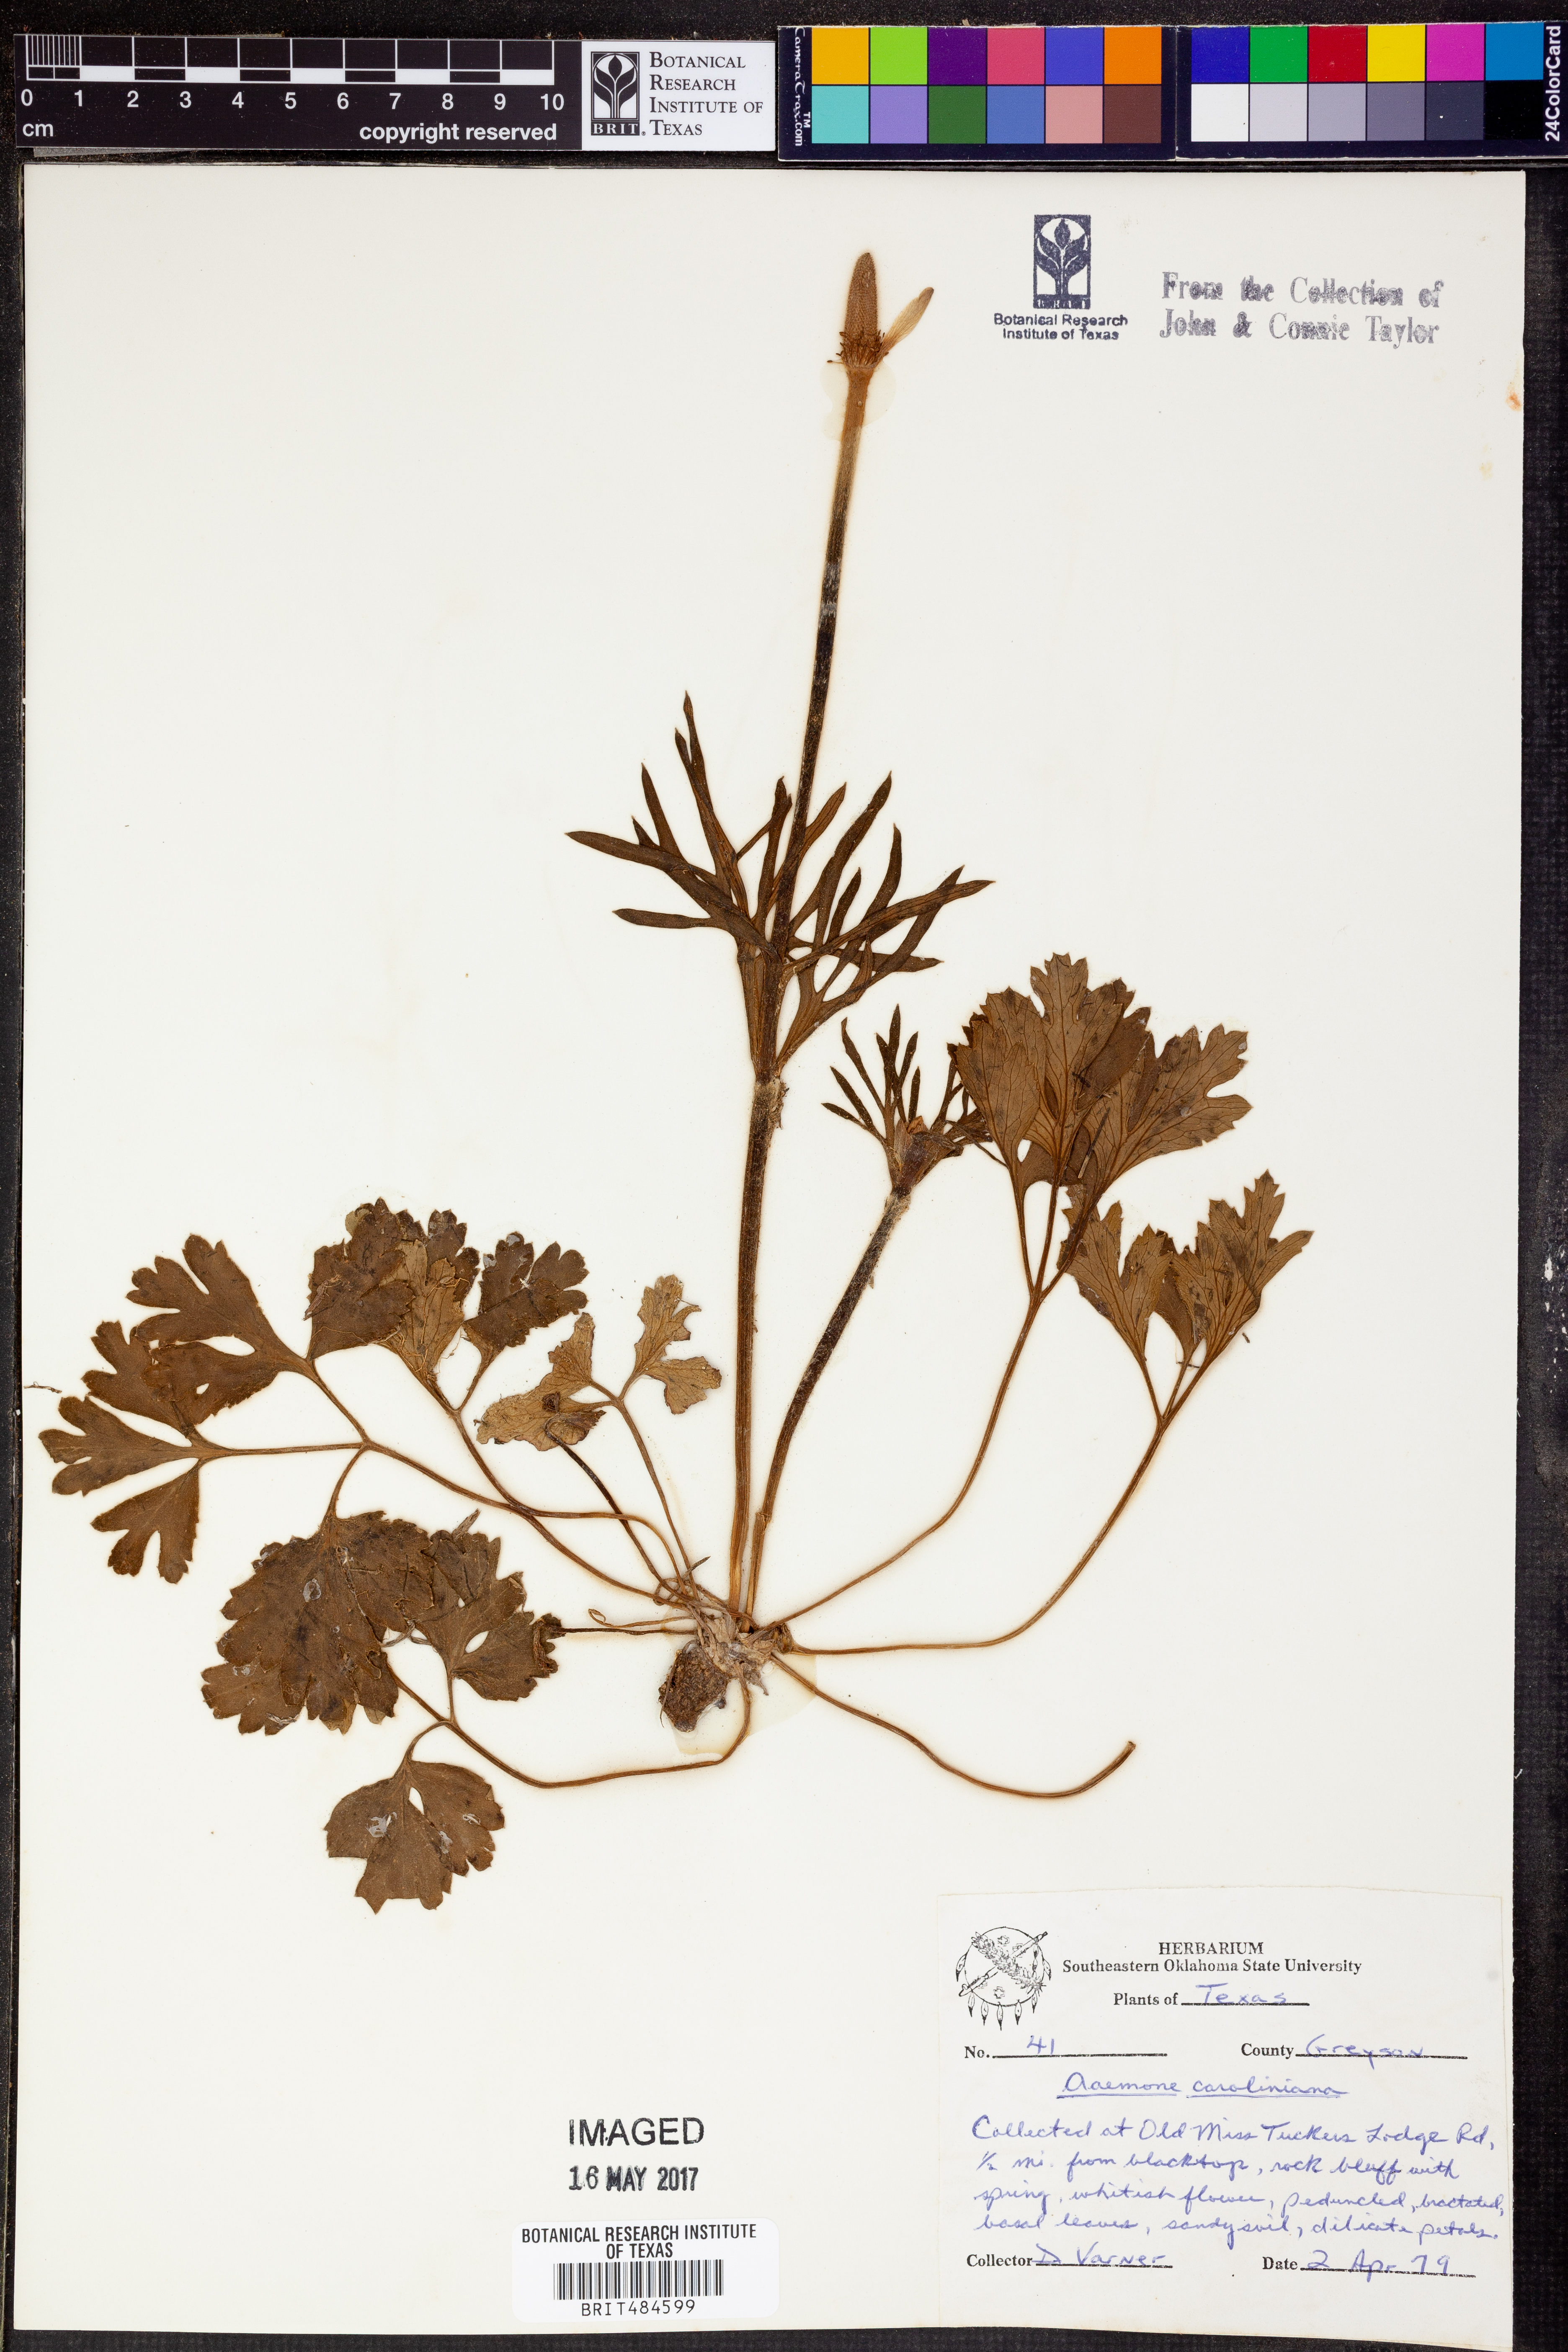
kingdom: Plantae
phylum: Tracheophyta
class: Magnoliopsida
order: Ranunculales
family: Ranunculaceae
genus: Anemone
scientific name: Anemone caroliniana
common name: Carolina anemone
